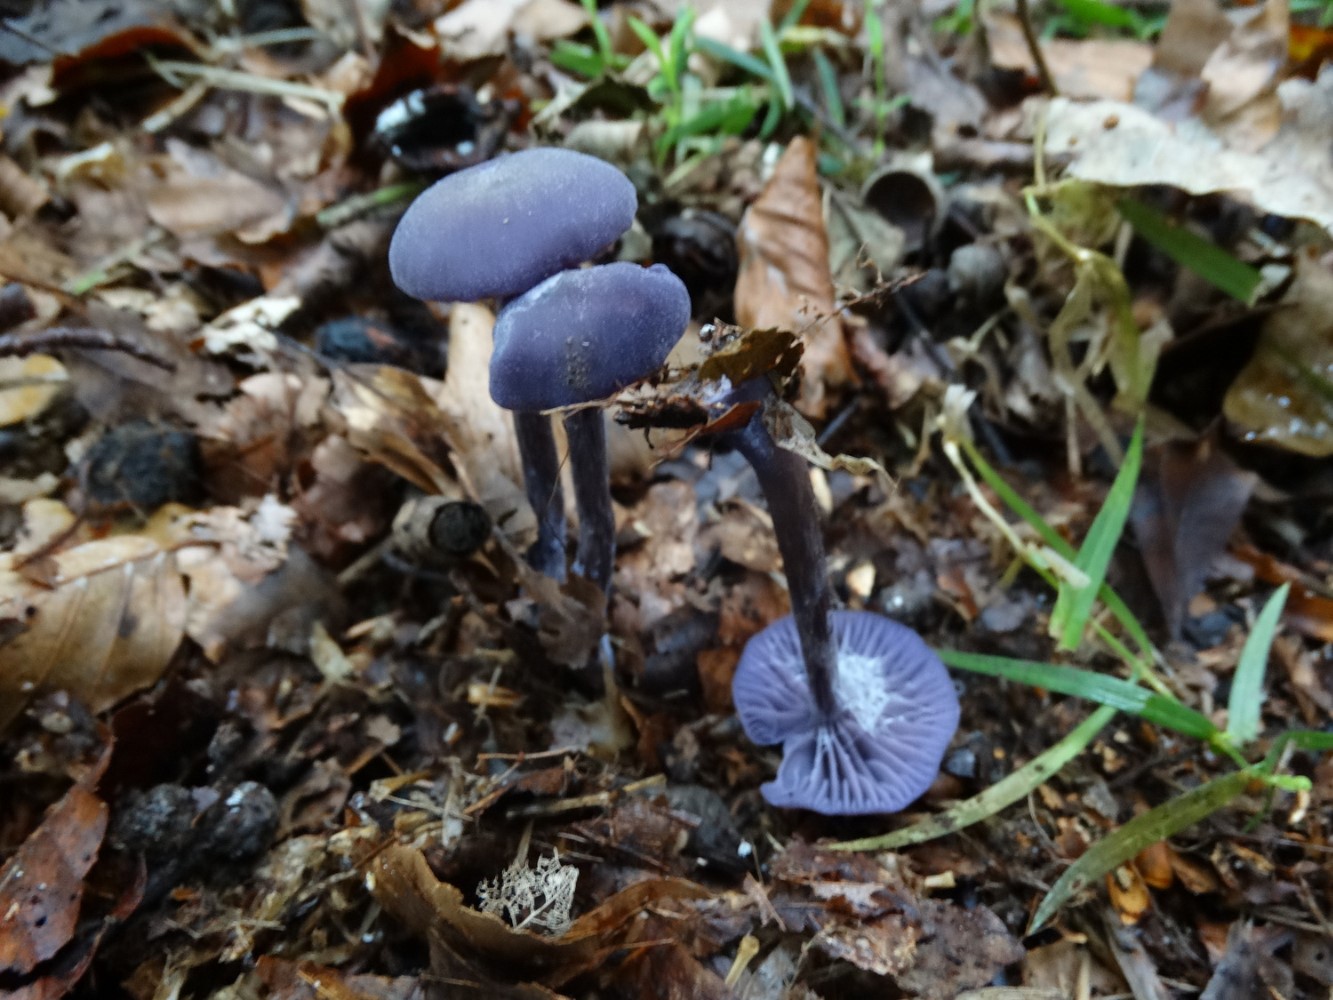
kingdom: Fungi
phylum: Basidiomycota
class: Agaricomycetes
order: Agaricales
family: Hydnangiaceae
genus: Laccaria
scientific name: Laccaria amethystina
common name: violet ametysthat
